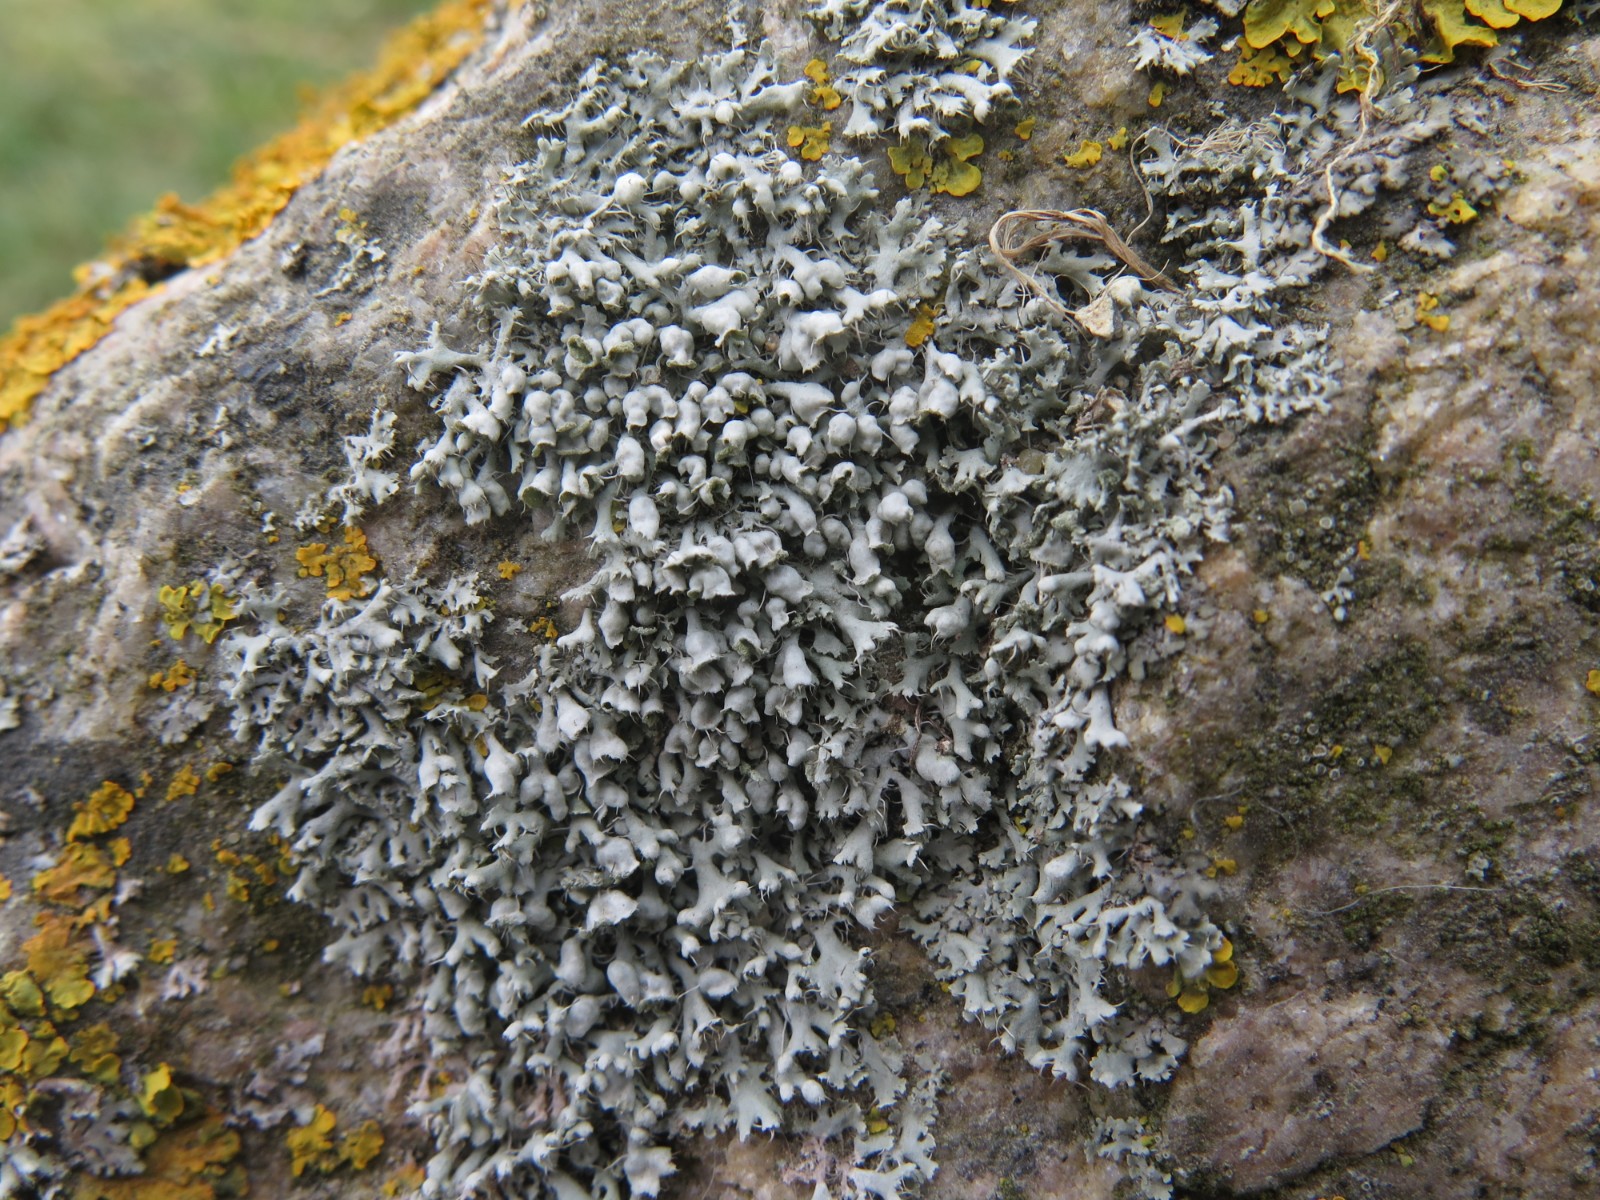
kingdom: Fungi
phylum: Ascomycota
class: Lecanoromycetes
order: Caliciales
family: Physciaceae
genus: Physcia
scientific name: Physcia adscendens
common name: hætte-rosetlav
